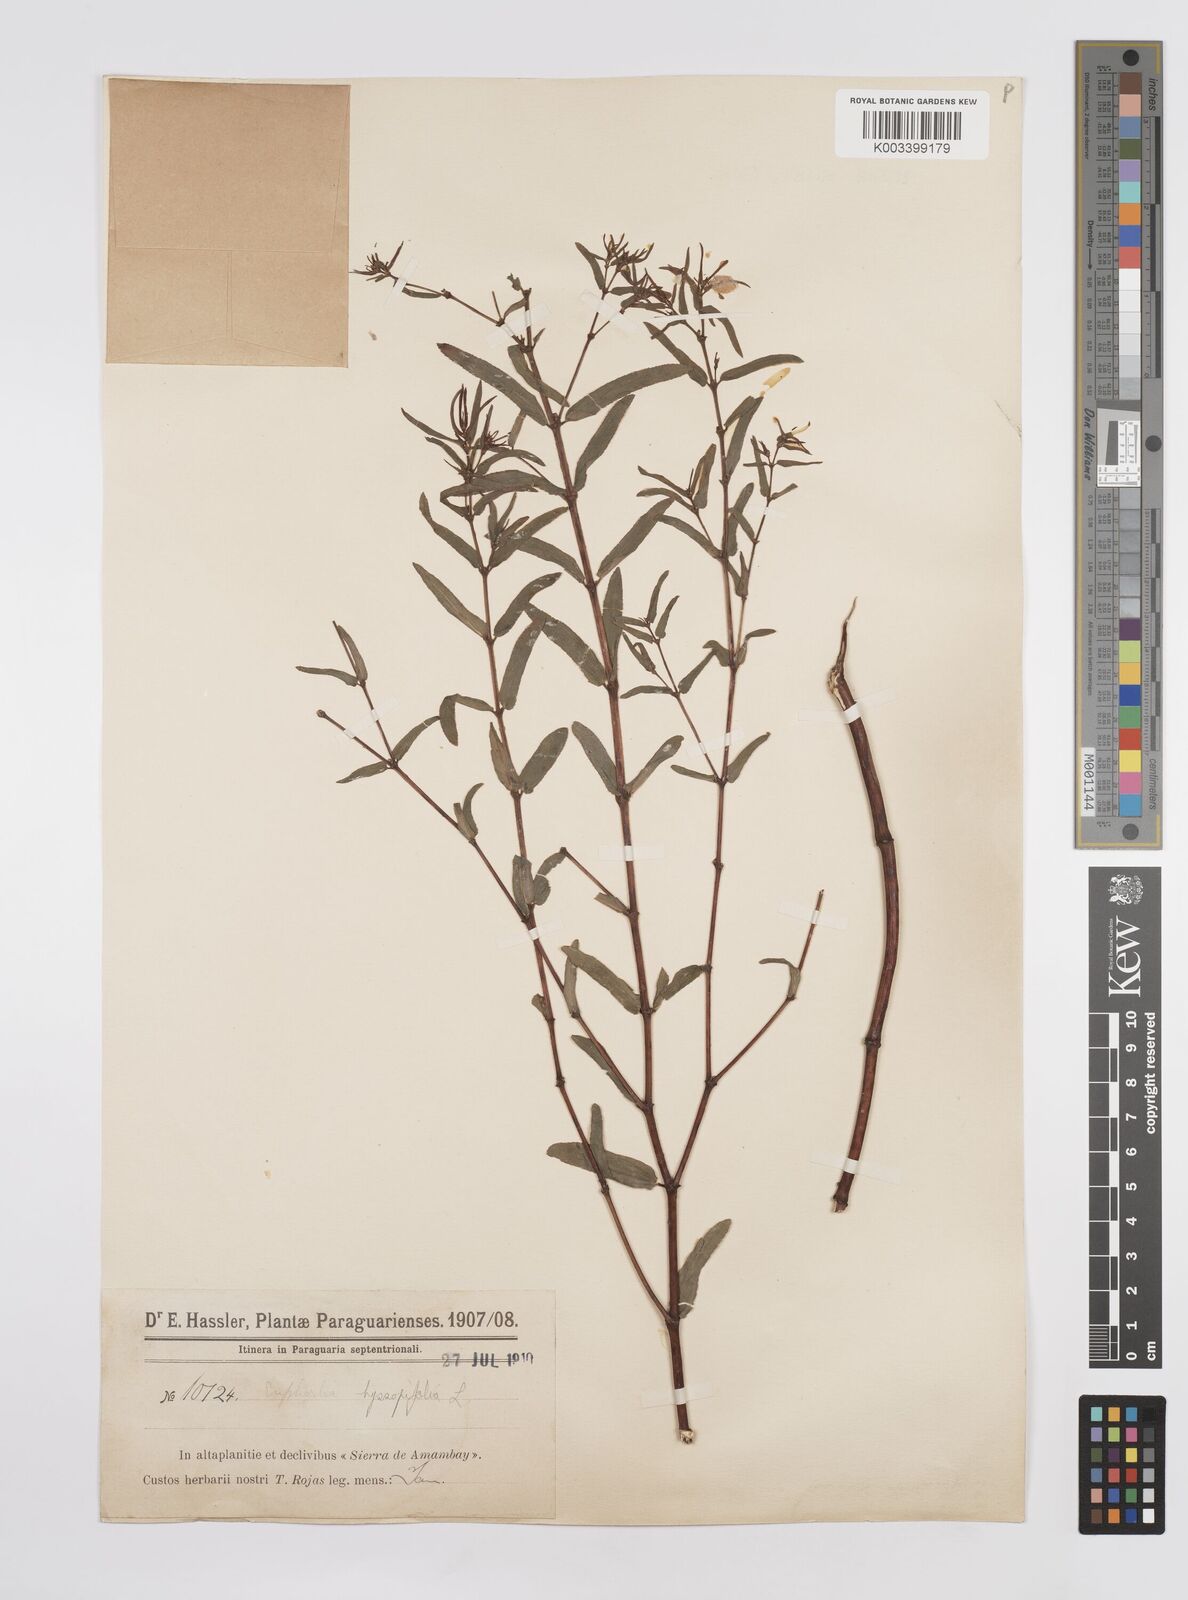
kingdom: Plantae
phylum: Tracheophyta
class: Magnoliopsida
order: Malpighiales
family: Euphorbiaceae
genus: Euphorbia
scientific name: Euphorbia hyssopifolia
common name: Hyssopleaf sandmat
